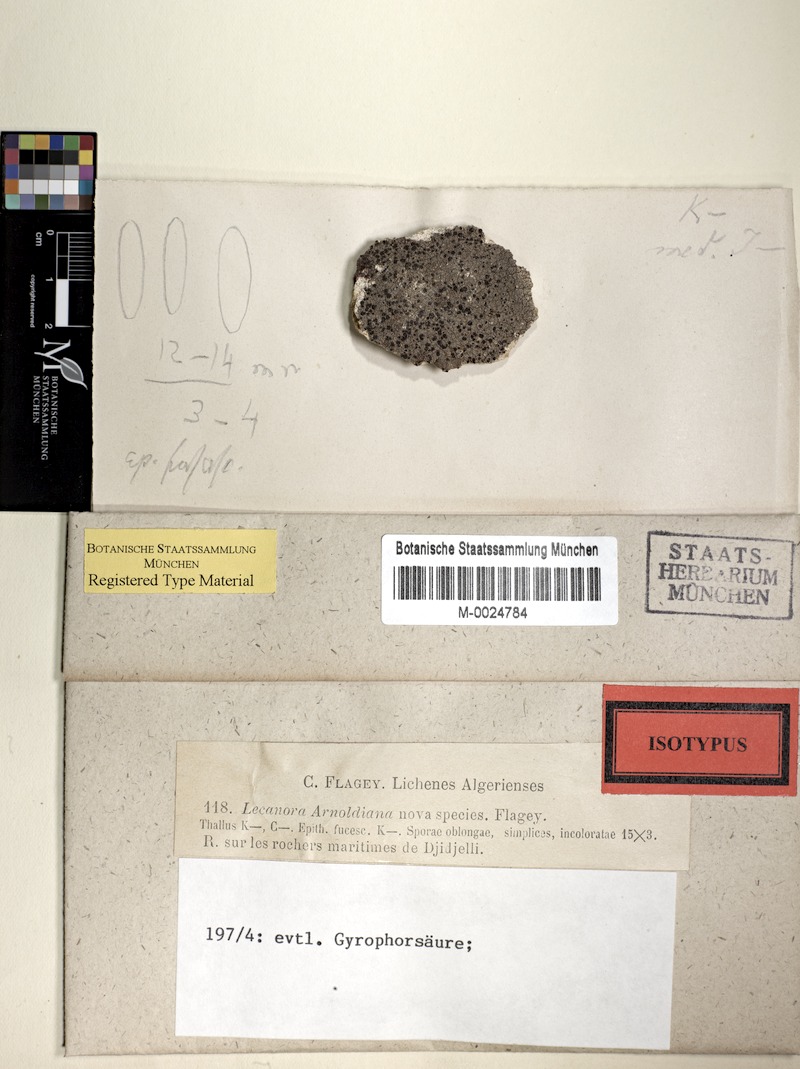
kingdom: Fungi
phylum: Ascomycota
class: Lecanoromycetes
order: Lecanorales
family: Lecanoraceae
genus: Lecanora
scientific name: Lecanora albella
